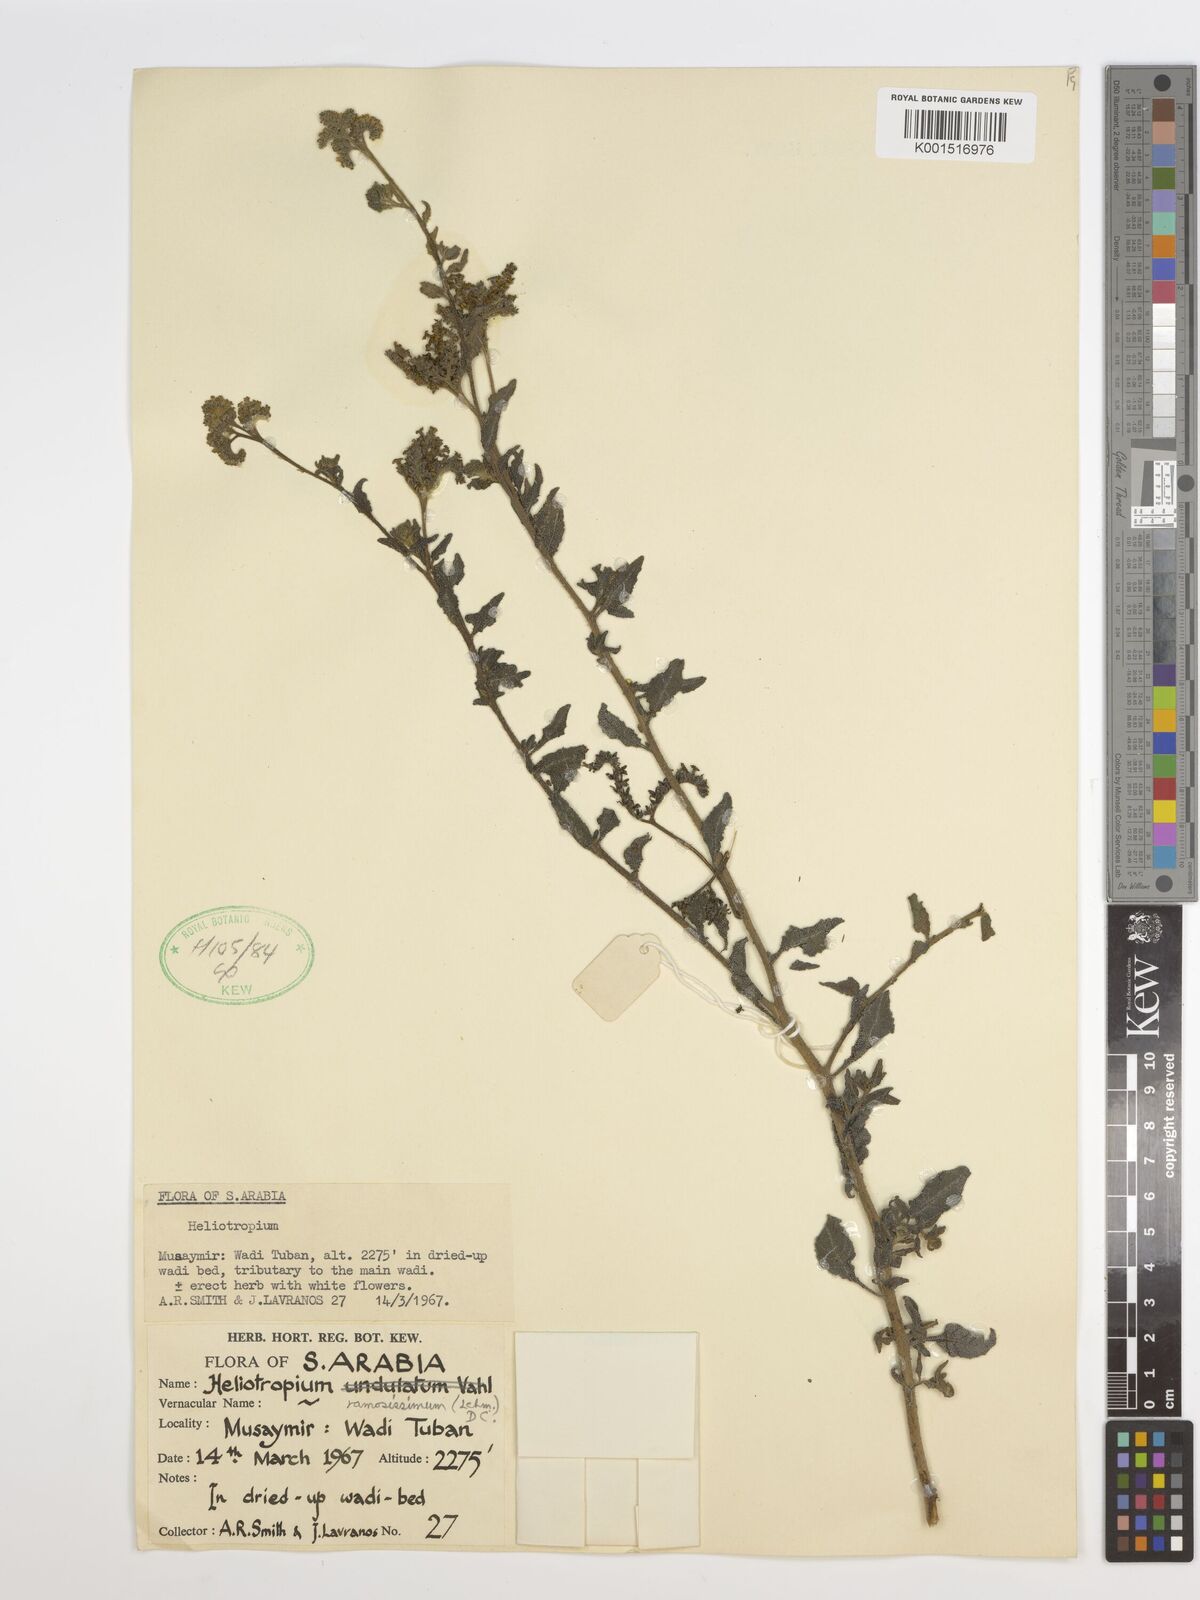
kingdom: Plantae
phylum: Tracheophyta
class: Magnoliopsida
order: Boraginales
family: Heliotropiaceae
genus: Heliotropium
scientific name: Heliotropium ramosissimum
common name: Wavy heliotrope
